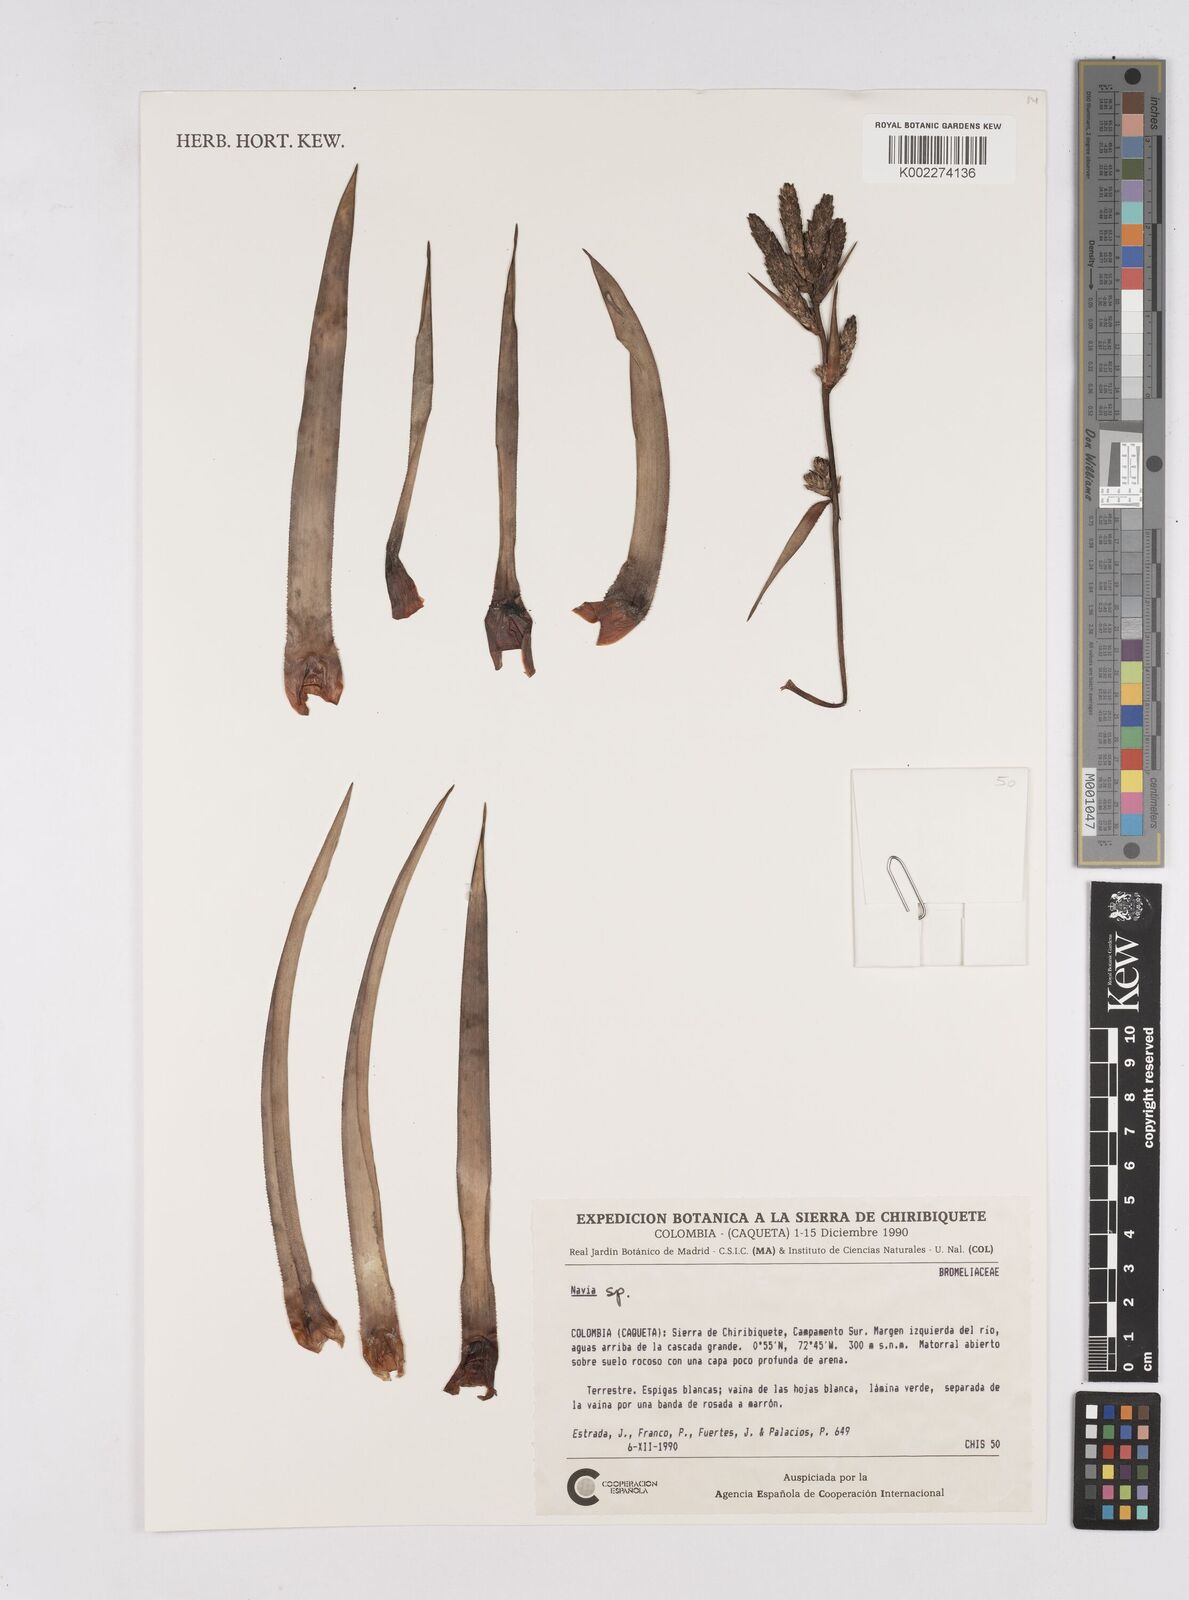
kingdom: Plantae
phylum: Tracheophyta
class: Liliopsida
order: Poales
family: Bromeliaceae
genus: Navia
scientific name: Navia
